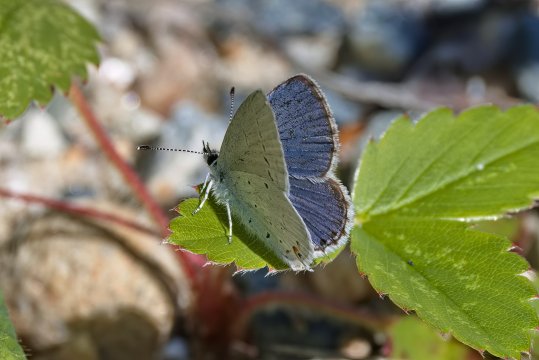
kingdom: Animalia
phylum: Arthropoda
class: Insecta
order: Lepidoptera
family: Lycaenidae
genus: Elkalyce
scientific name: Elkalyce amyntula
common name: Western Tailed-Blue
